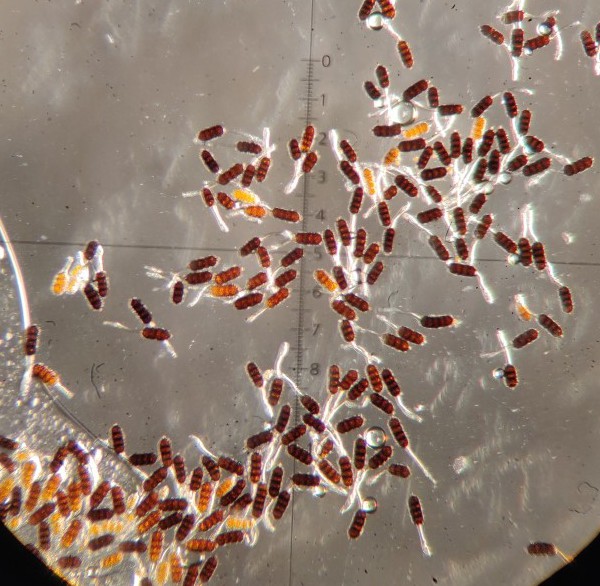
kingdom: Fungi
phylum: Basidiomycota
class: Pucciniomycetes
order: Pucciniales
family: Phragmidiaceae
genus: Phragmidium
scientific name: Phragmidium violaceum
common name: violet flercellerust
